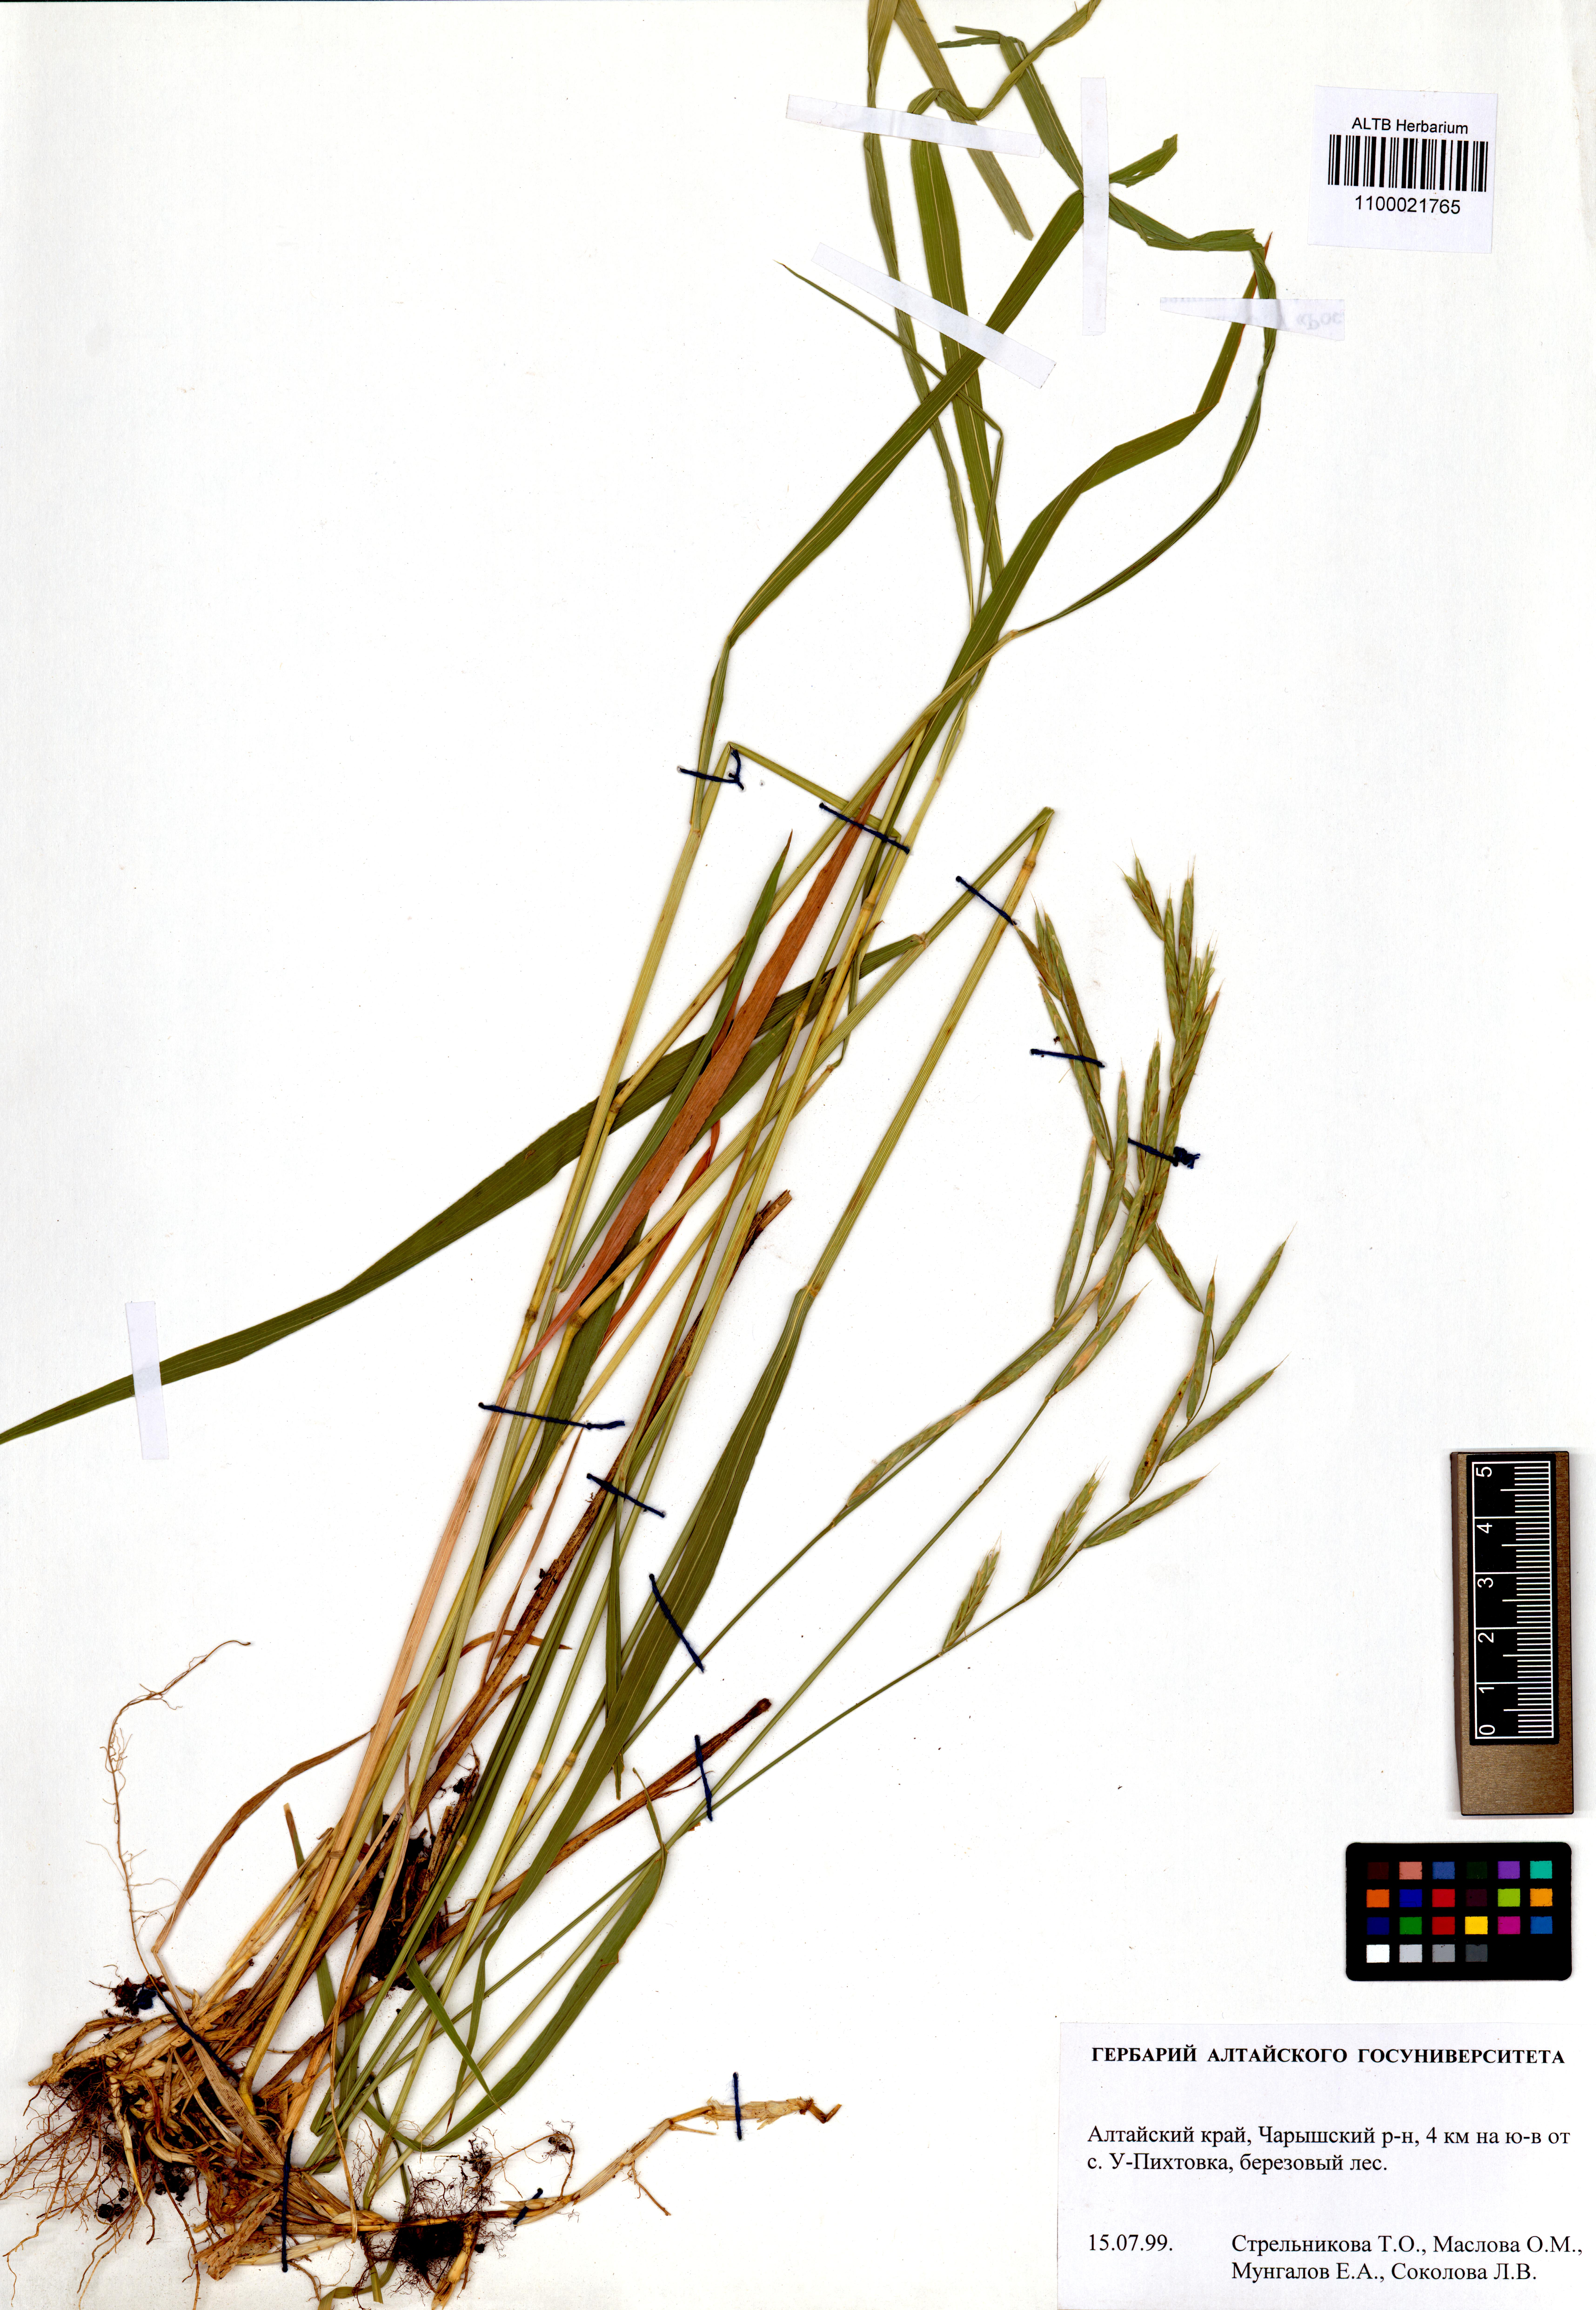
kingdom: Plantae
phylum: Tracheophyta
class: Liliopsida
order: Poales
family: Poaceae
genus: Brachypodium
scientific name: Brachypodium pinnatum
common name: Tor grass
